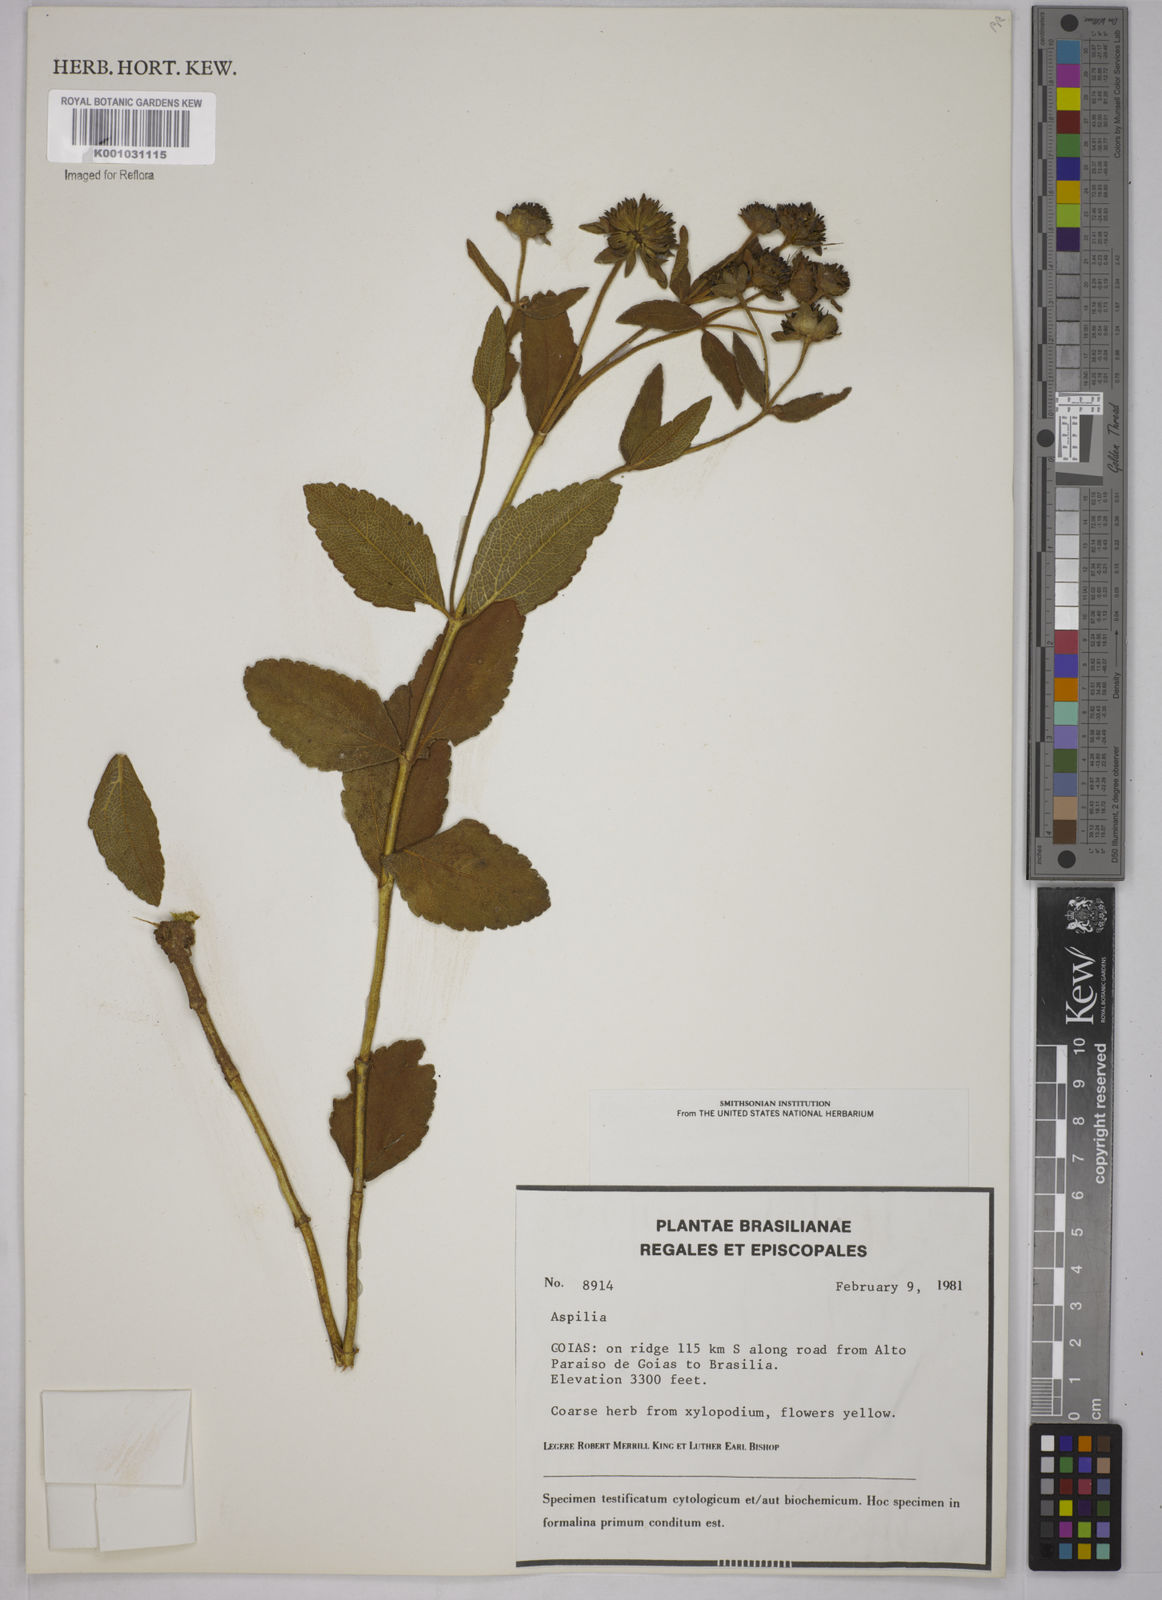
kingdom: Plantae
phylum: Tracheophyta
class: Magnoliopsida
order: Asterales
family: Asteraceae
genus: Aspilia
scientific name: Aspilia
